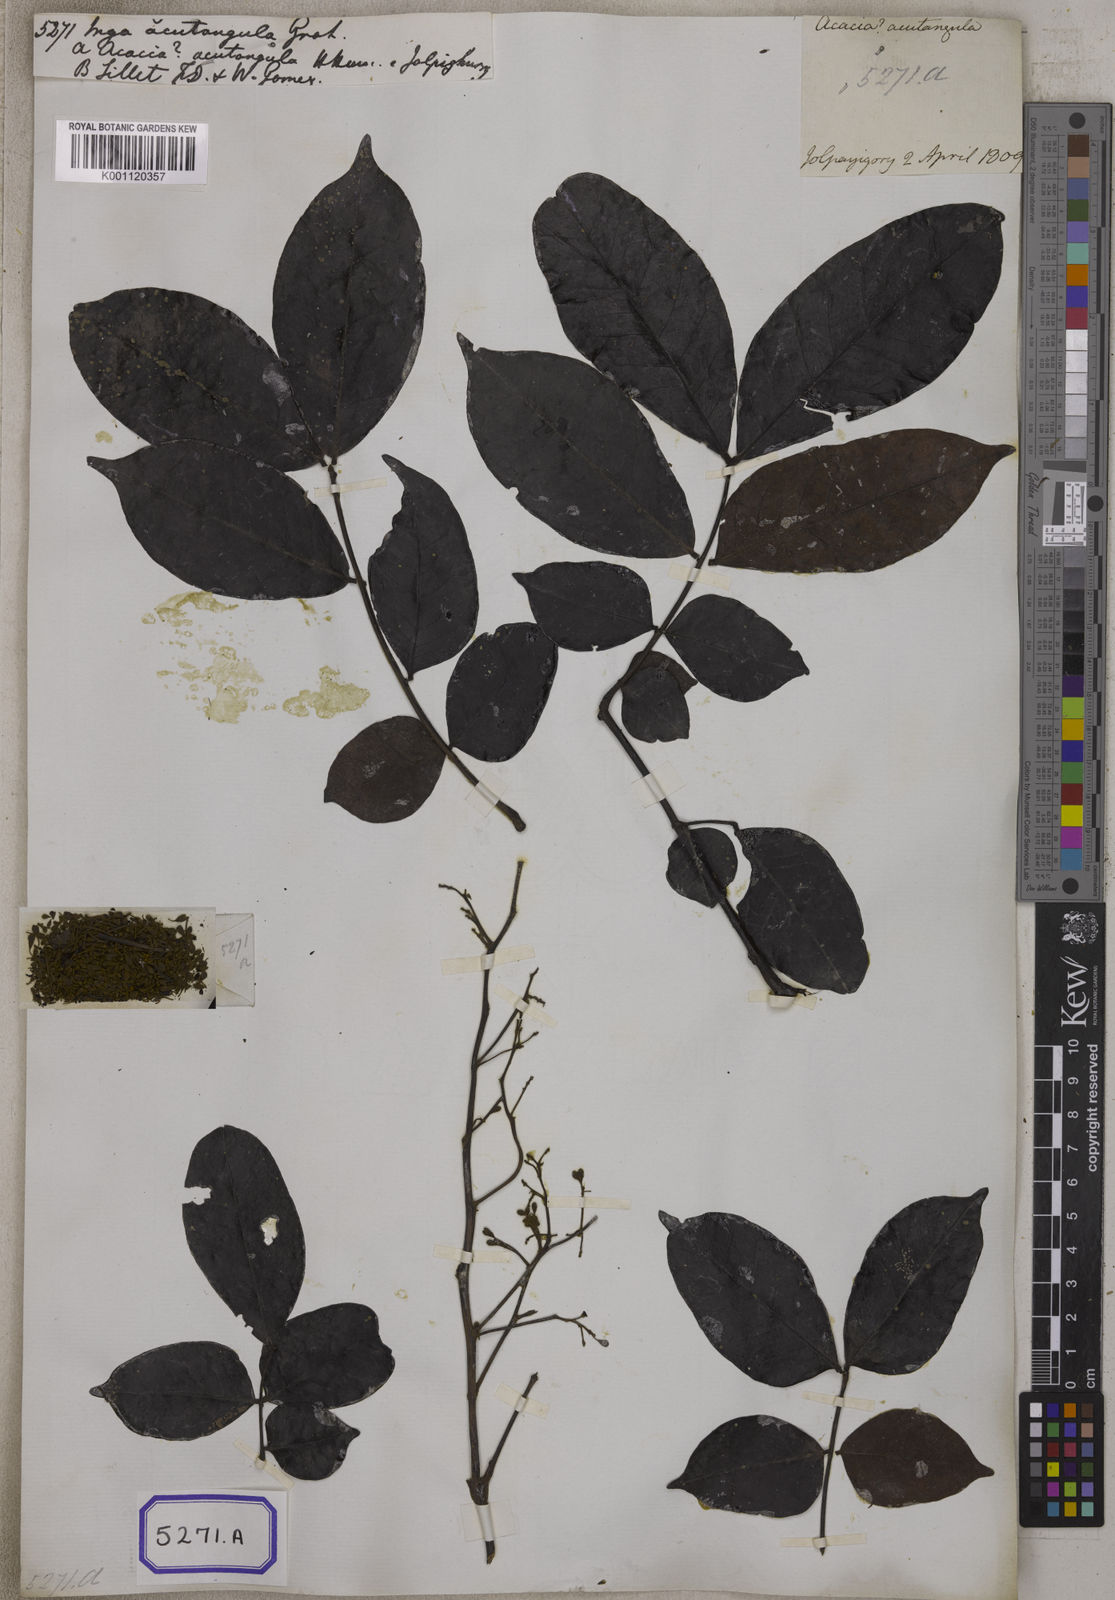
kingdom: Plantae
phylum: Tracheophyta
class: Magnoliopsida
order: Fabales
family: Fabaceae
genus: Archidendron
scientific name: Archidendron clypearia
